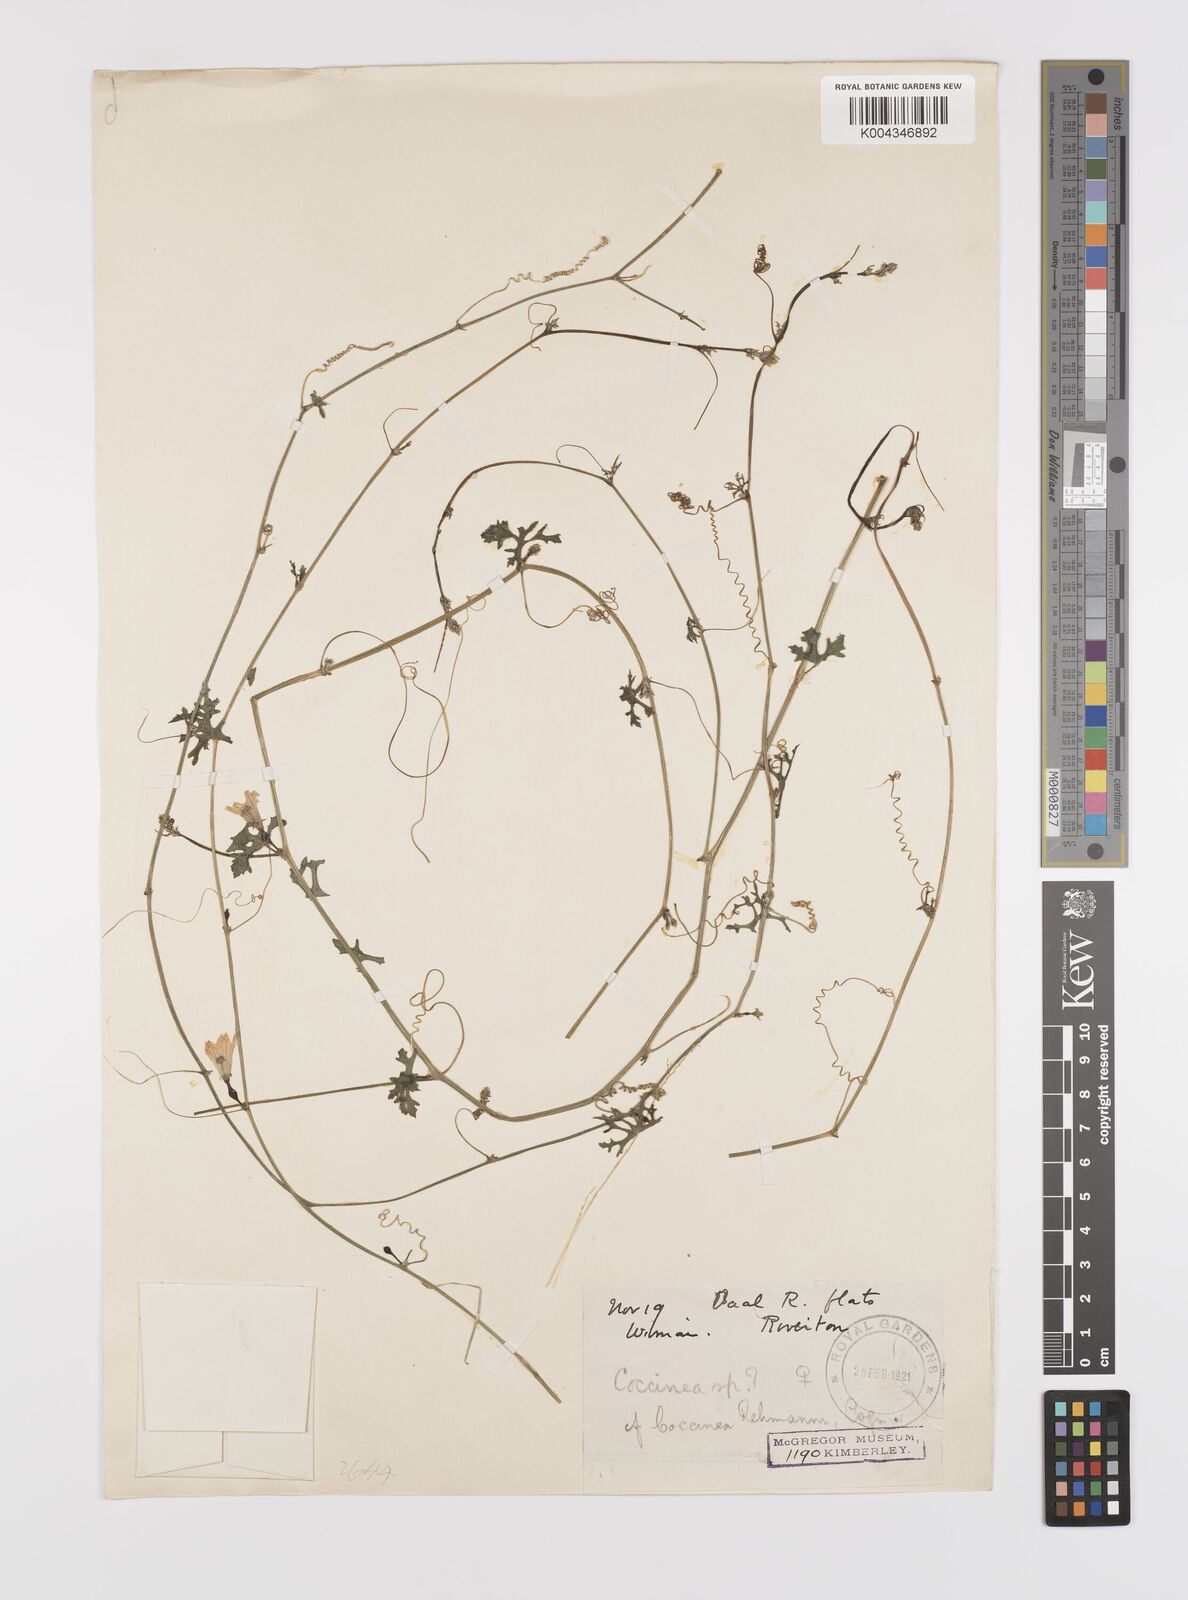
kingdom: Plantae
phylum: Tracheophyta
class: Magnoliopsida
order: Cucurbitales
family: Cucurbitaceae
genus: Coccinia
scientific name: Coccinia rehmannii
